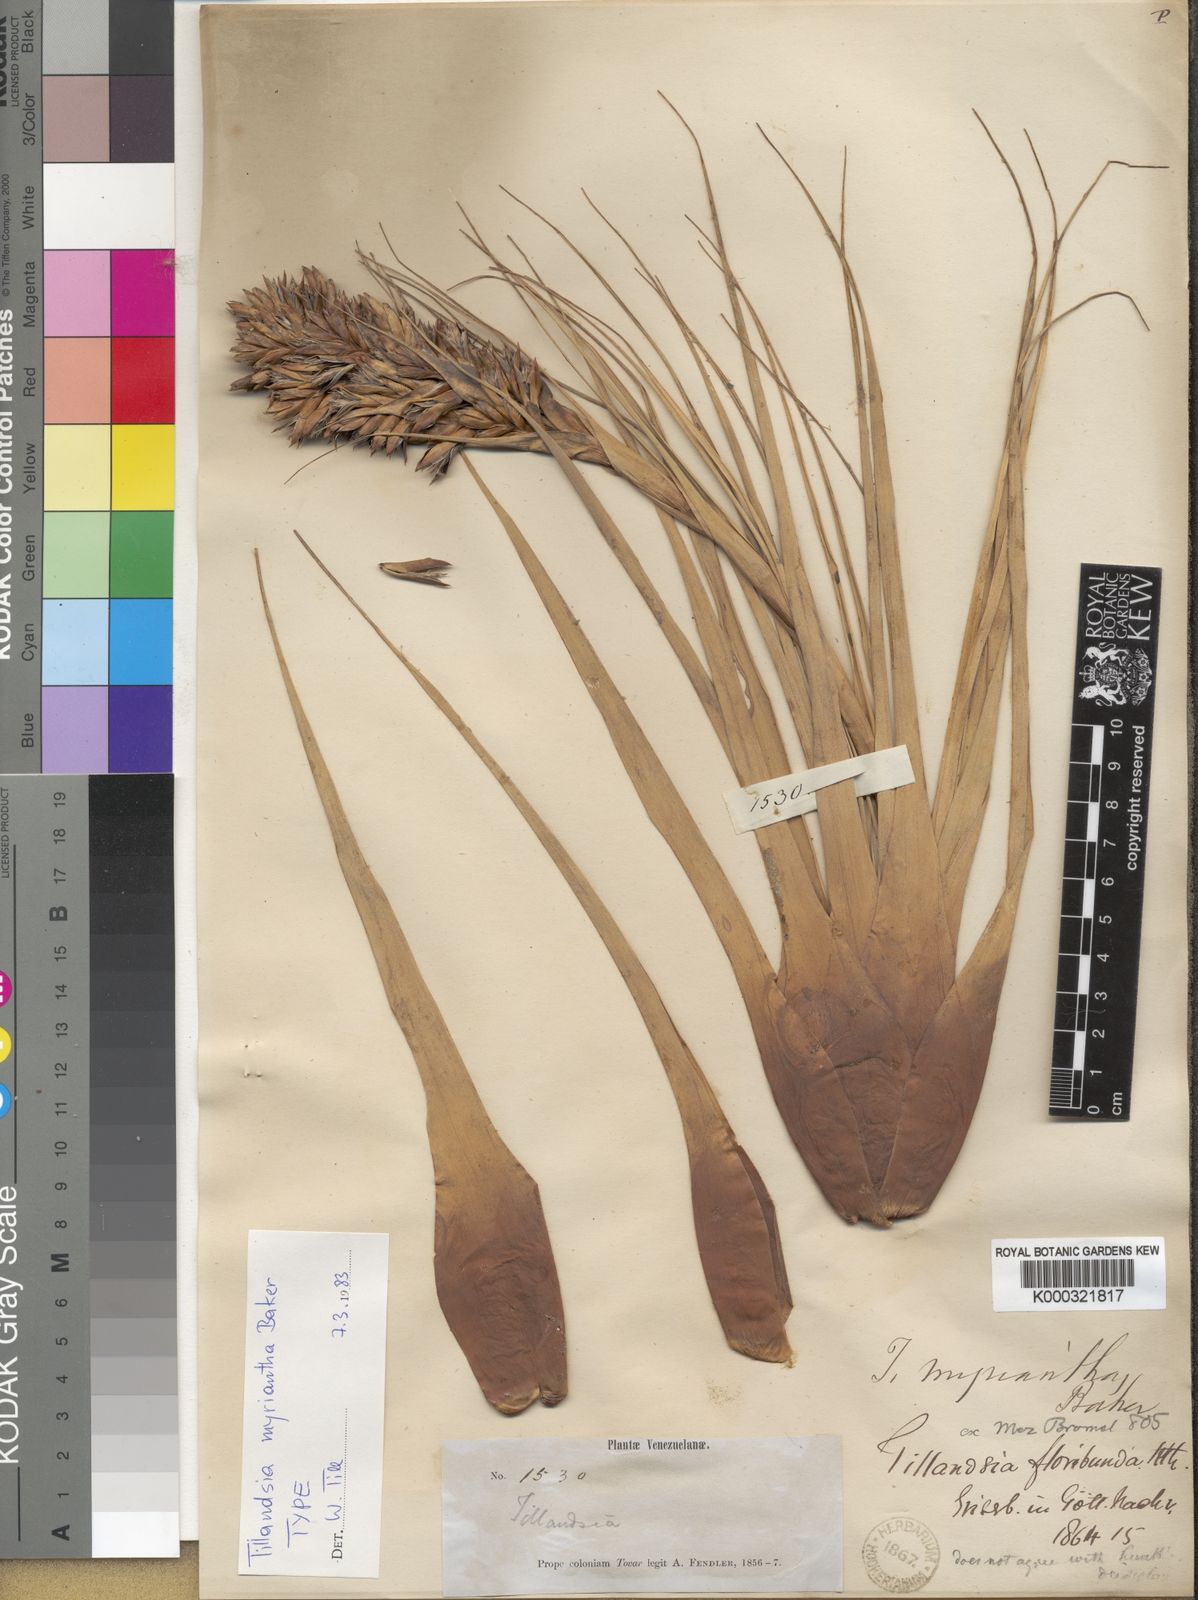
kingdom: Plantae
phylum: Tracheophyta
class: Liliopsida
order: Poales
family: Bromeliaceae
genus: Vriesea
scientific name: Vriesea myriantha
